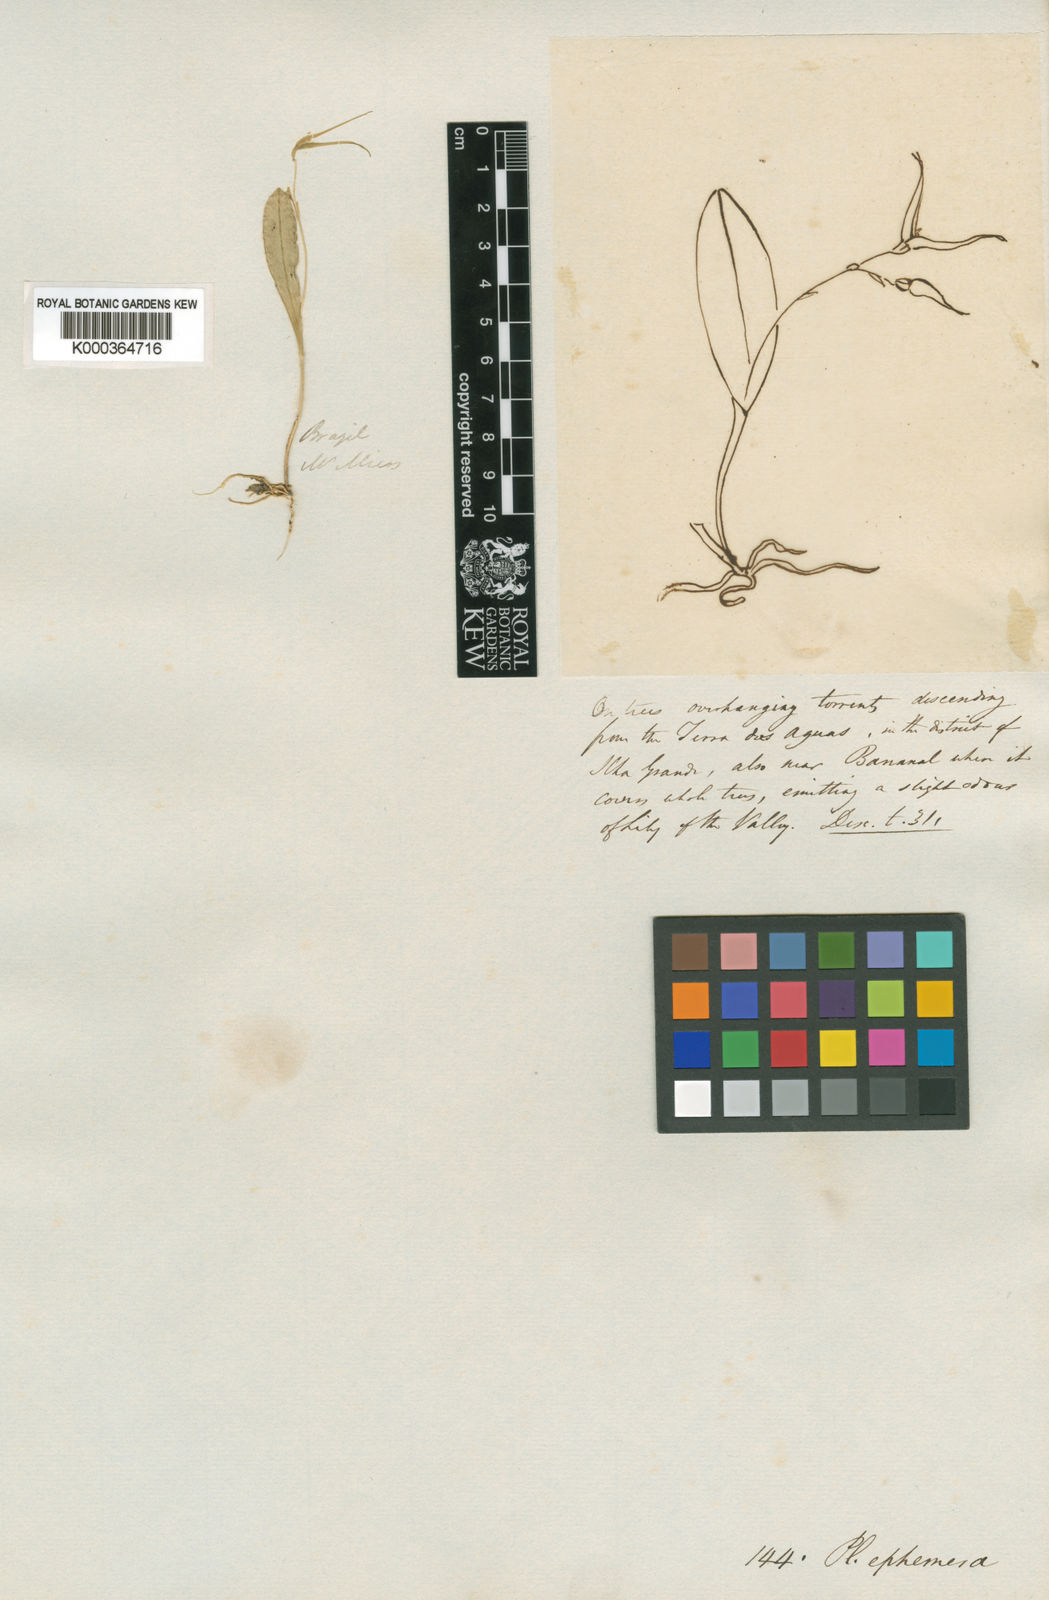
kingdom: Plantae
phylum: Tracheophyta
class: Liliopsida
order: Asparagales
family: Orchidaceae
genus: Pabstiella
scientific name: Pabstiella ephemera
